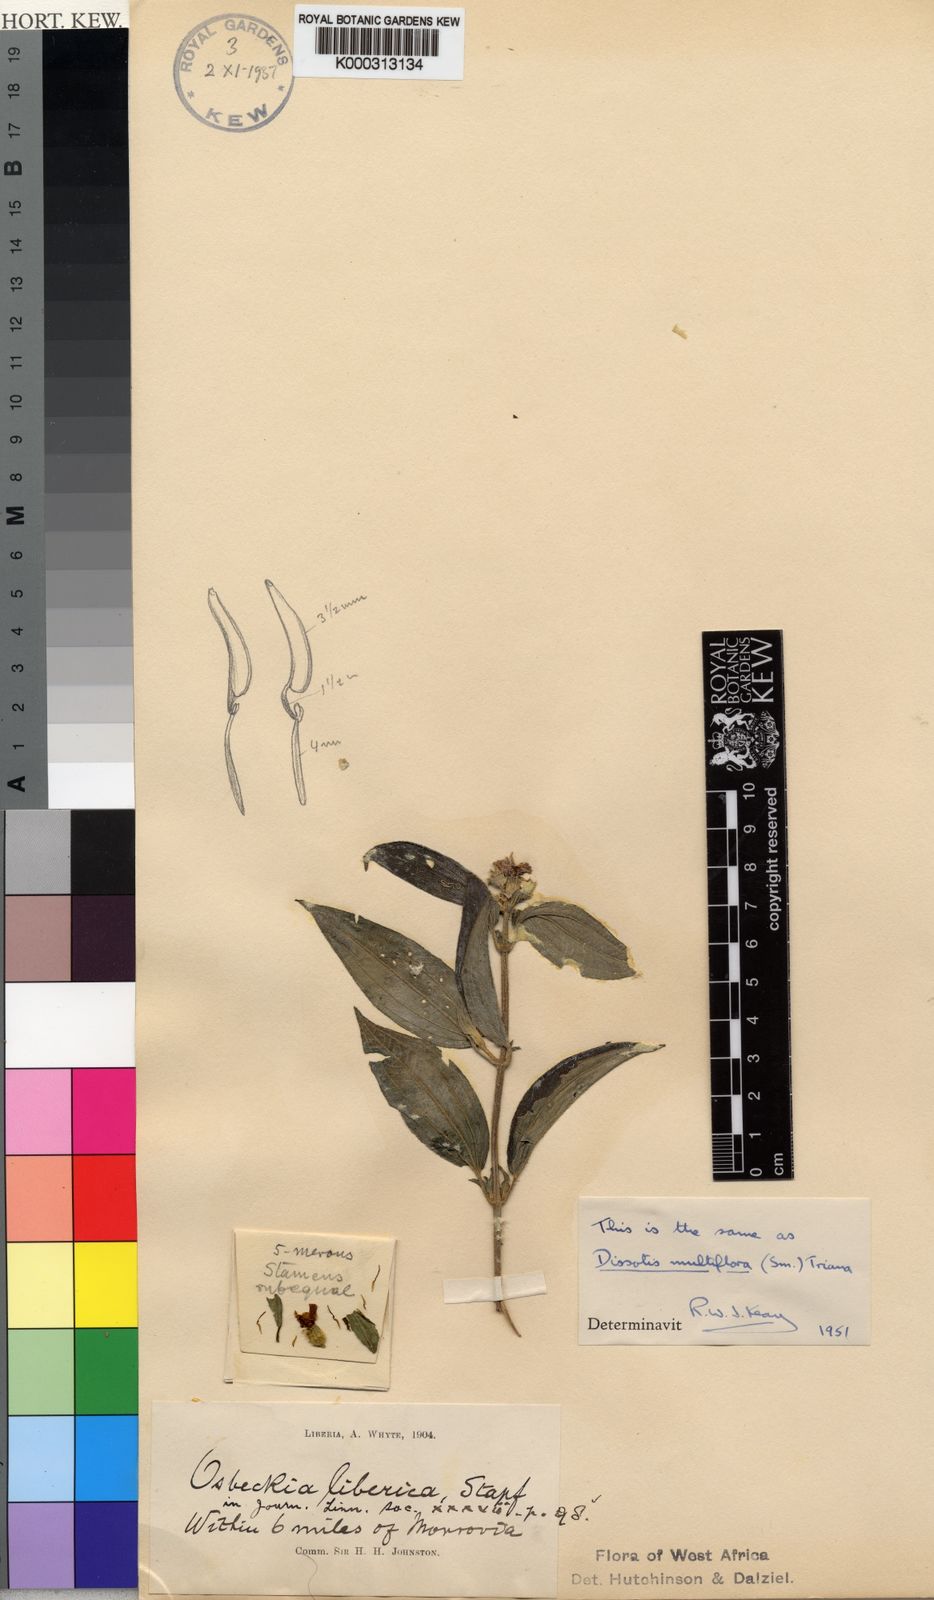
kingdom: Plantae
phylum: Tracheophyta
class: Magnoliopsida
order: Myrtales
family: Melastomataceae
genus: Dupineta
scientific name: Dupineta multiflora
